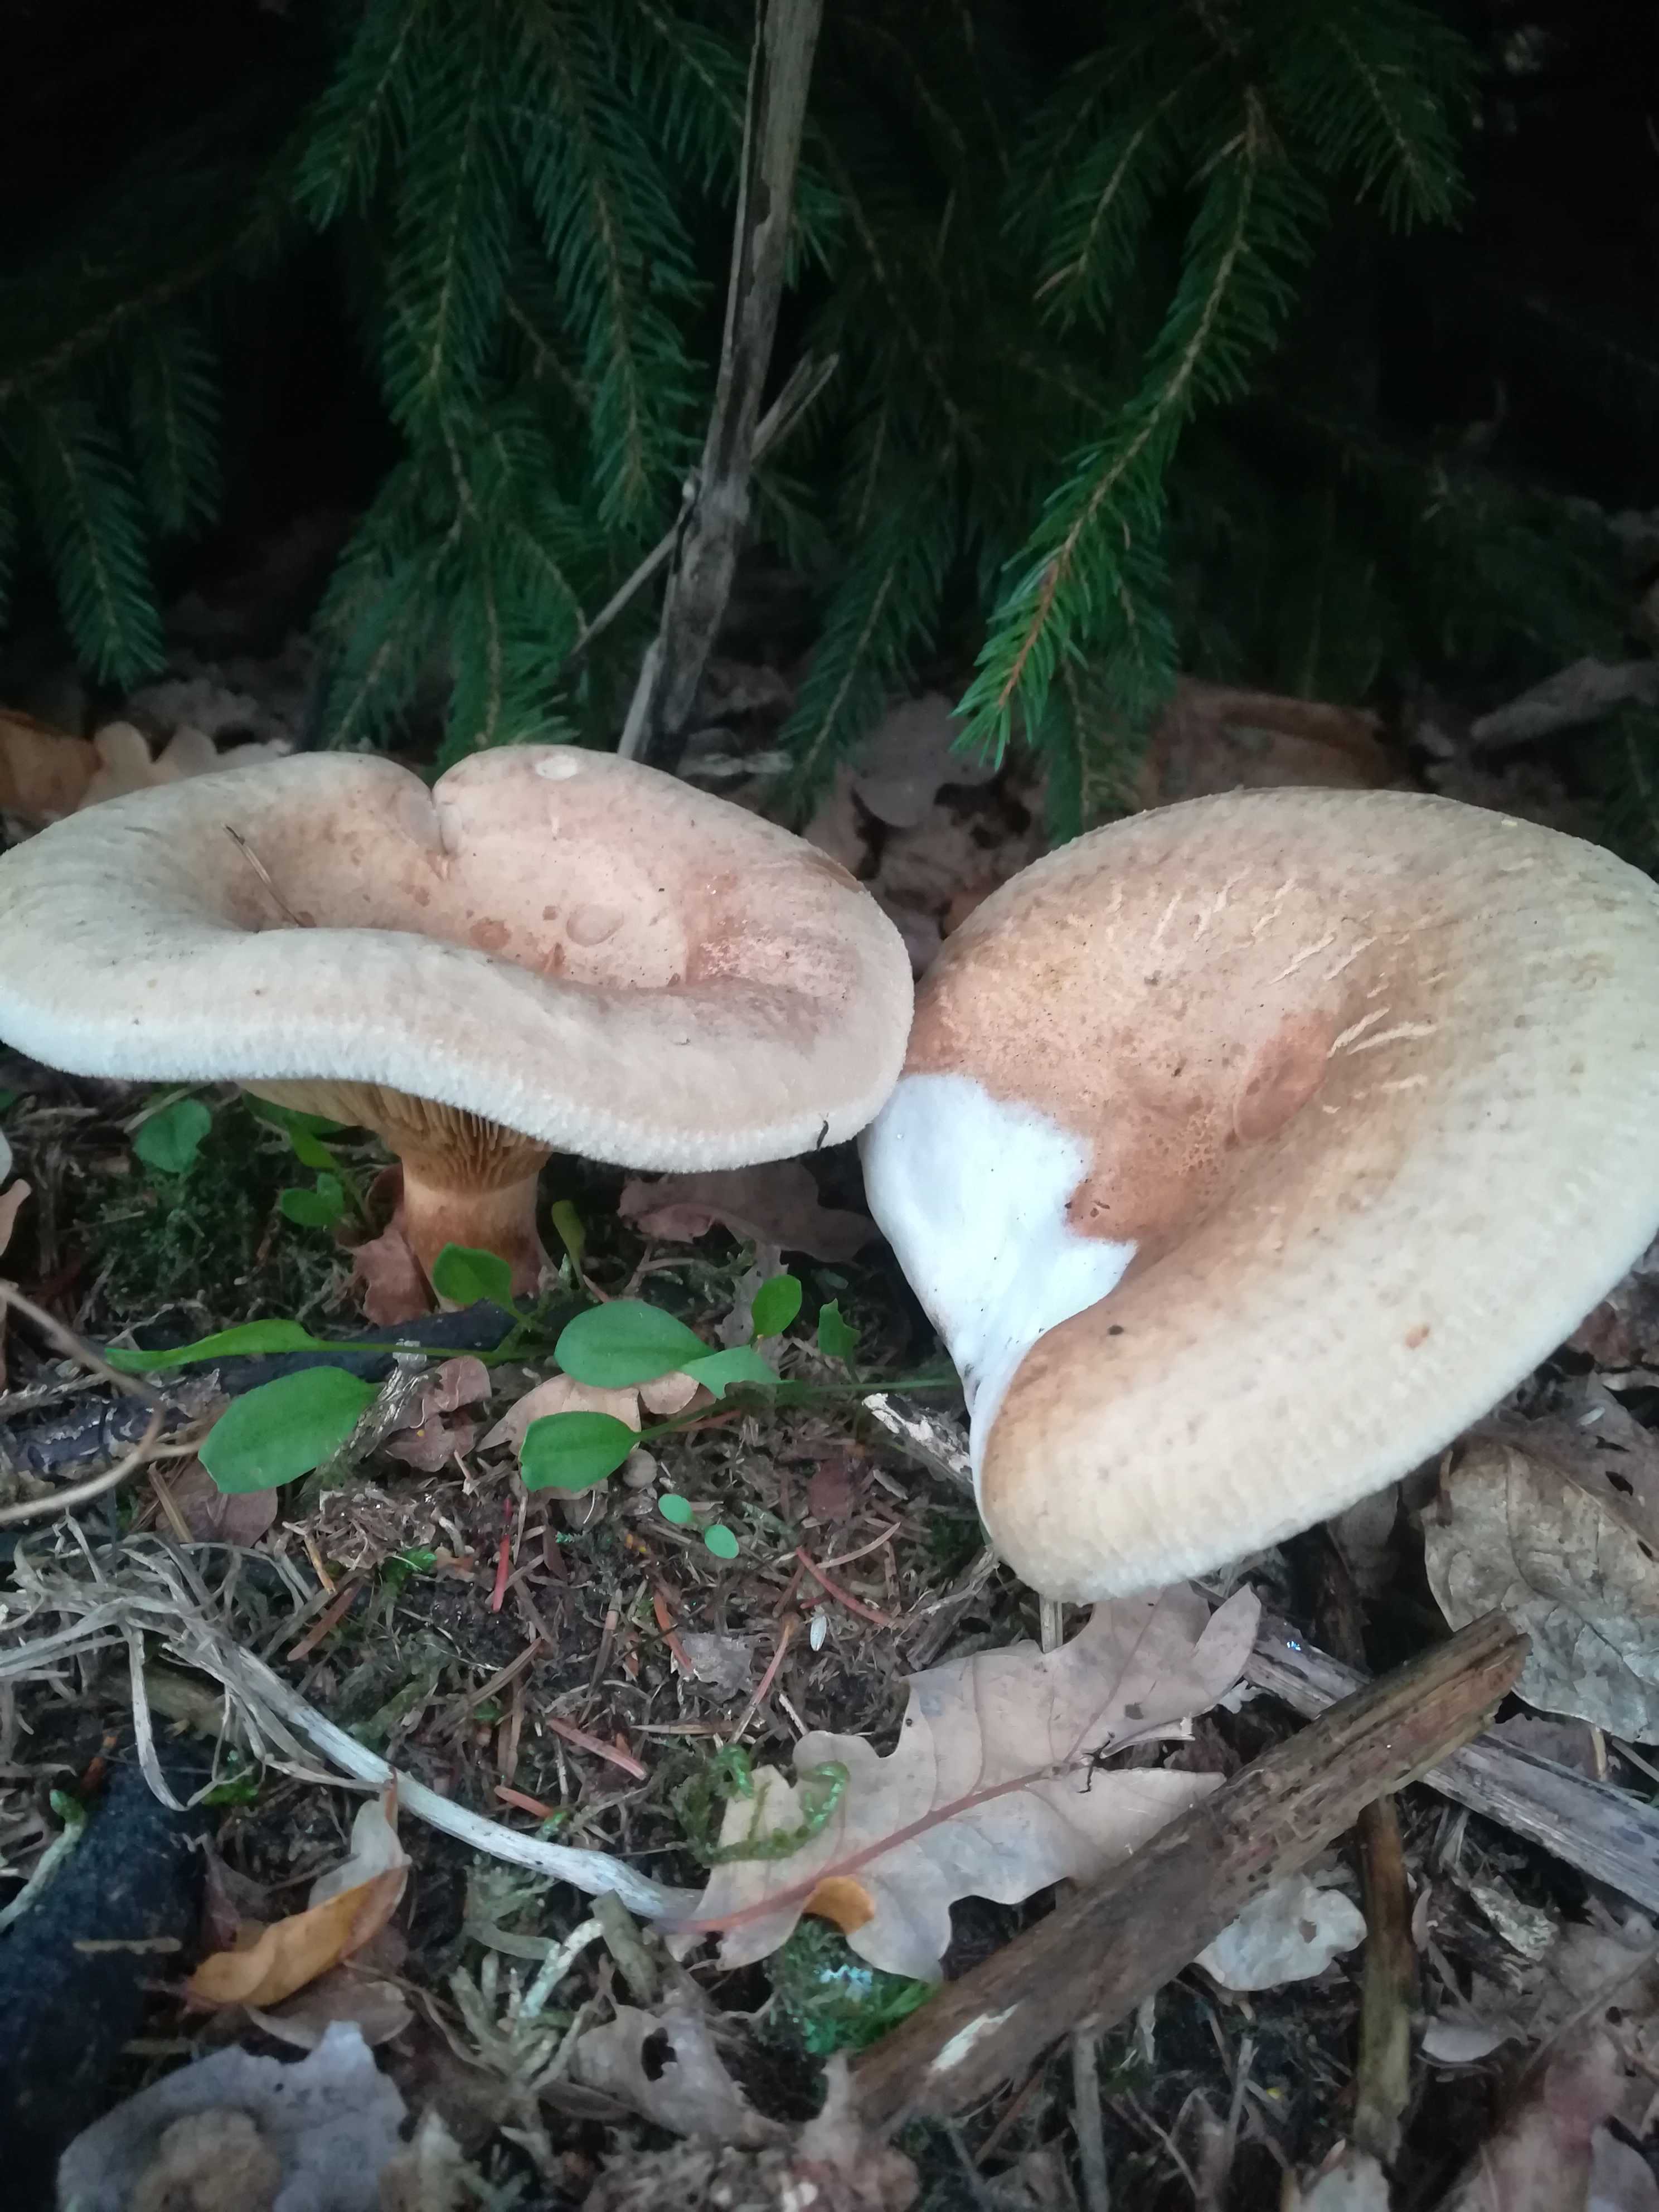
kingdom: Fungi
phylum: Basidiomycota
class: Agaricomycetes
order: Boletales
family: Paxillaceae
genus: Paxillus
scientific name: Paxillus involutus
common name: almindelig netbladhat
